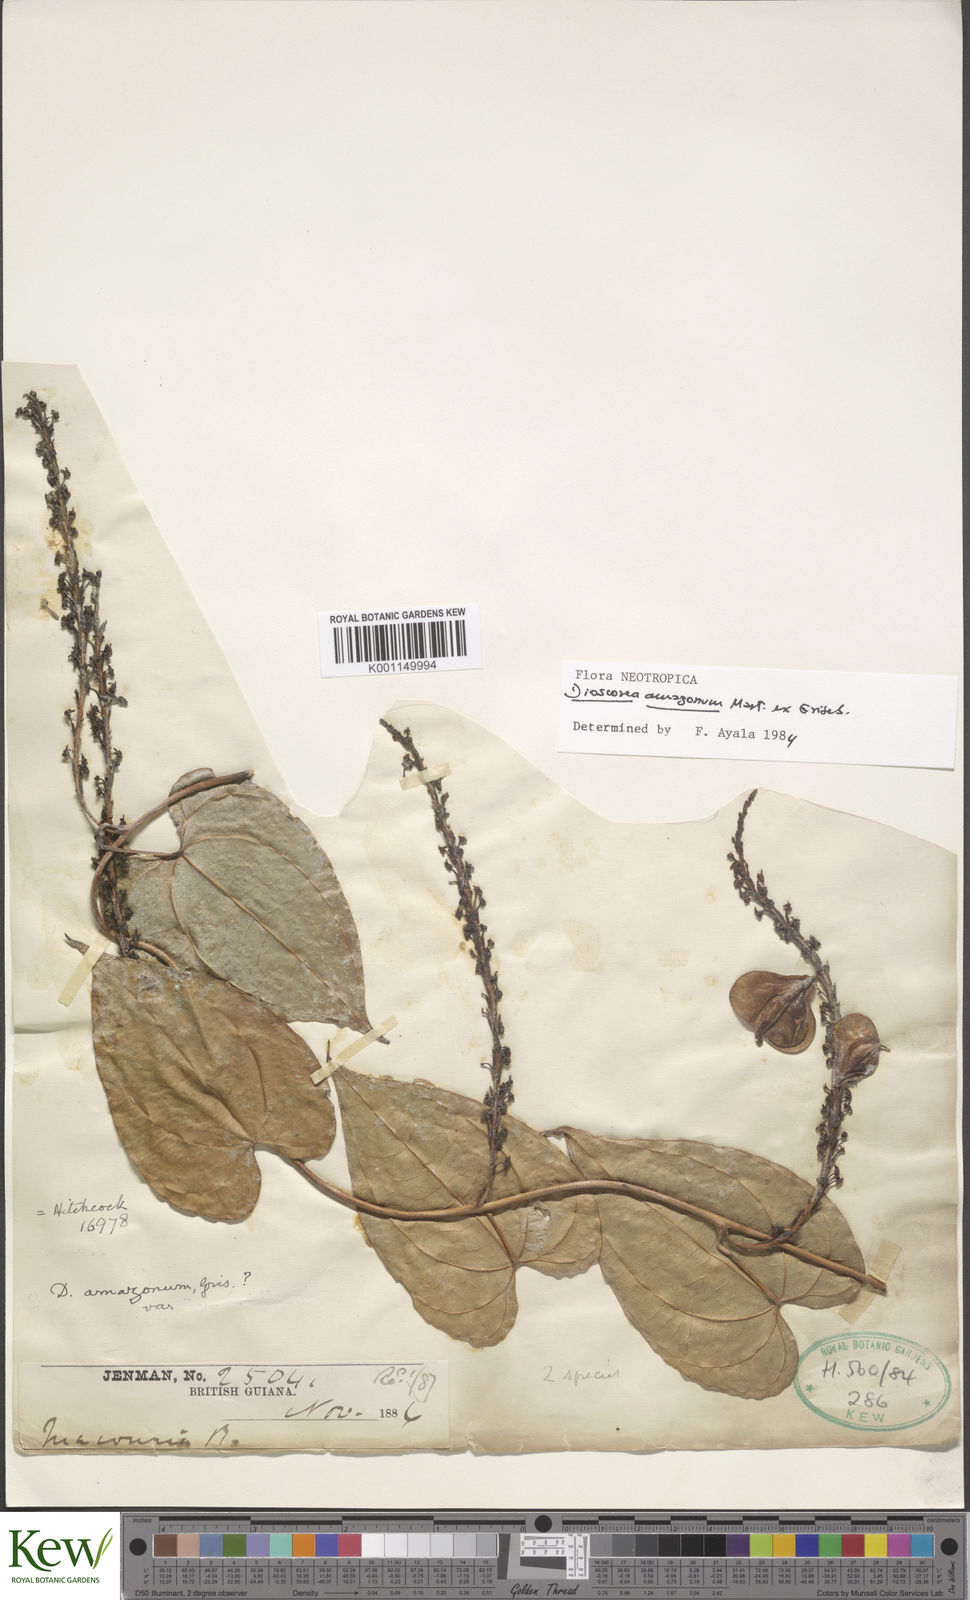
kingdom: Plantae
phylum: Tracheophyta
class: Liliopsida
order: Dioscoreales
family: Dioscoreaceae
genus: Dioscorea
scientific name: Dioscorea amazonum
